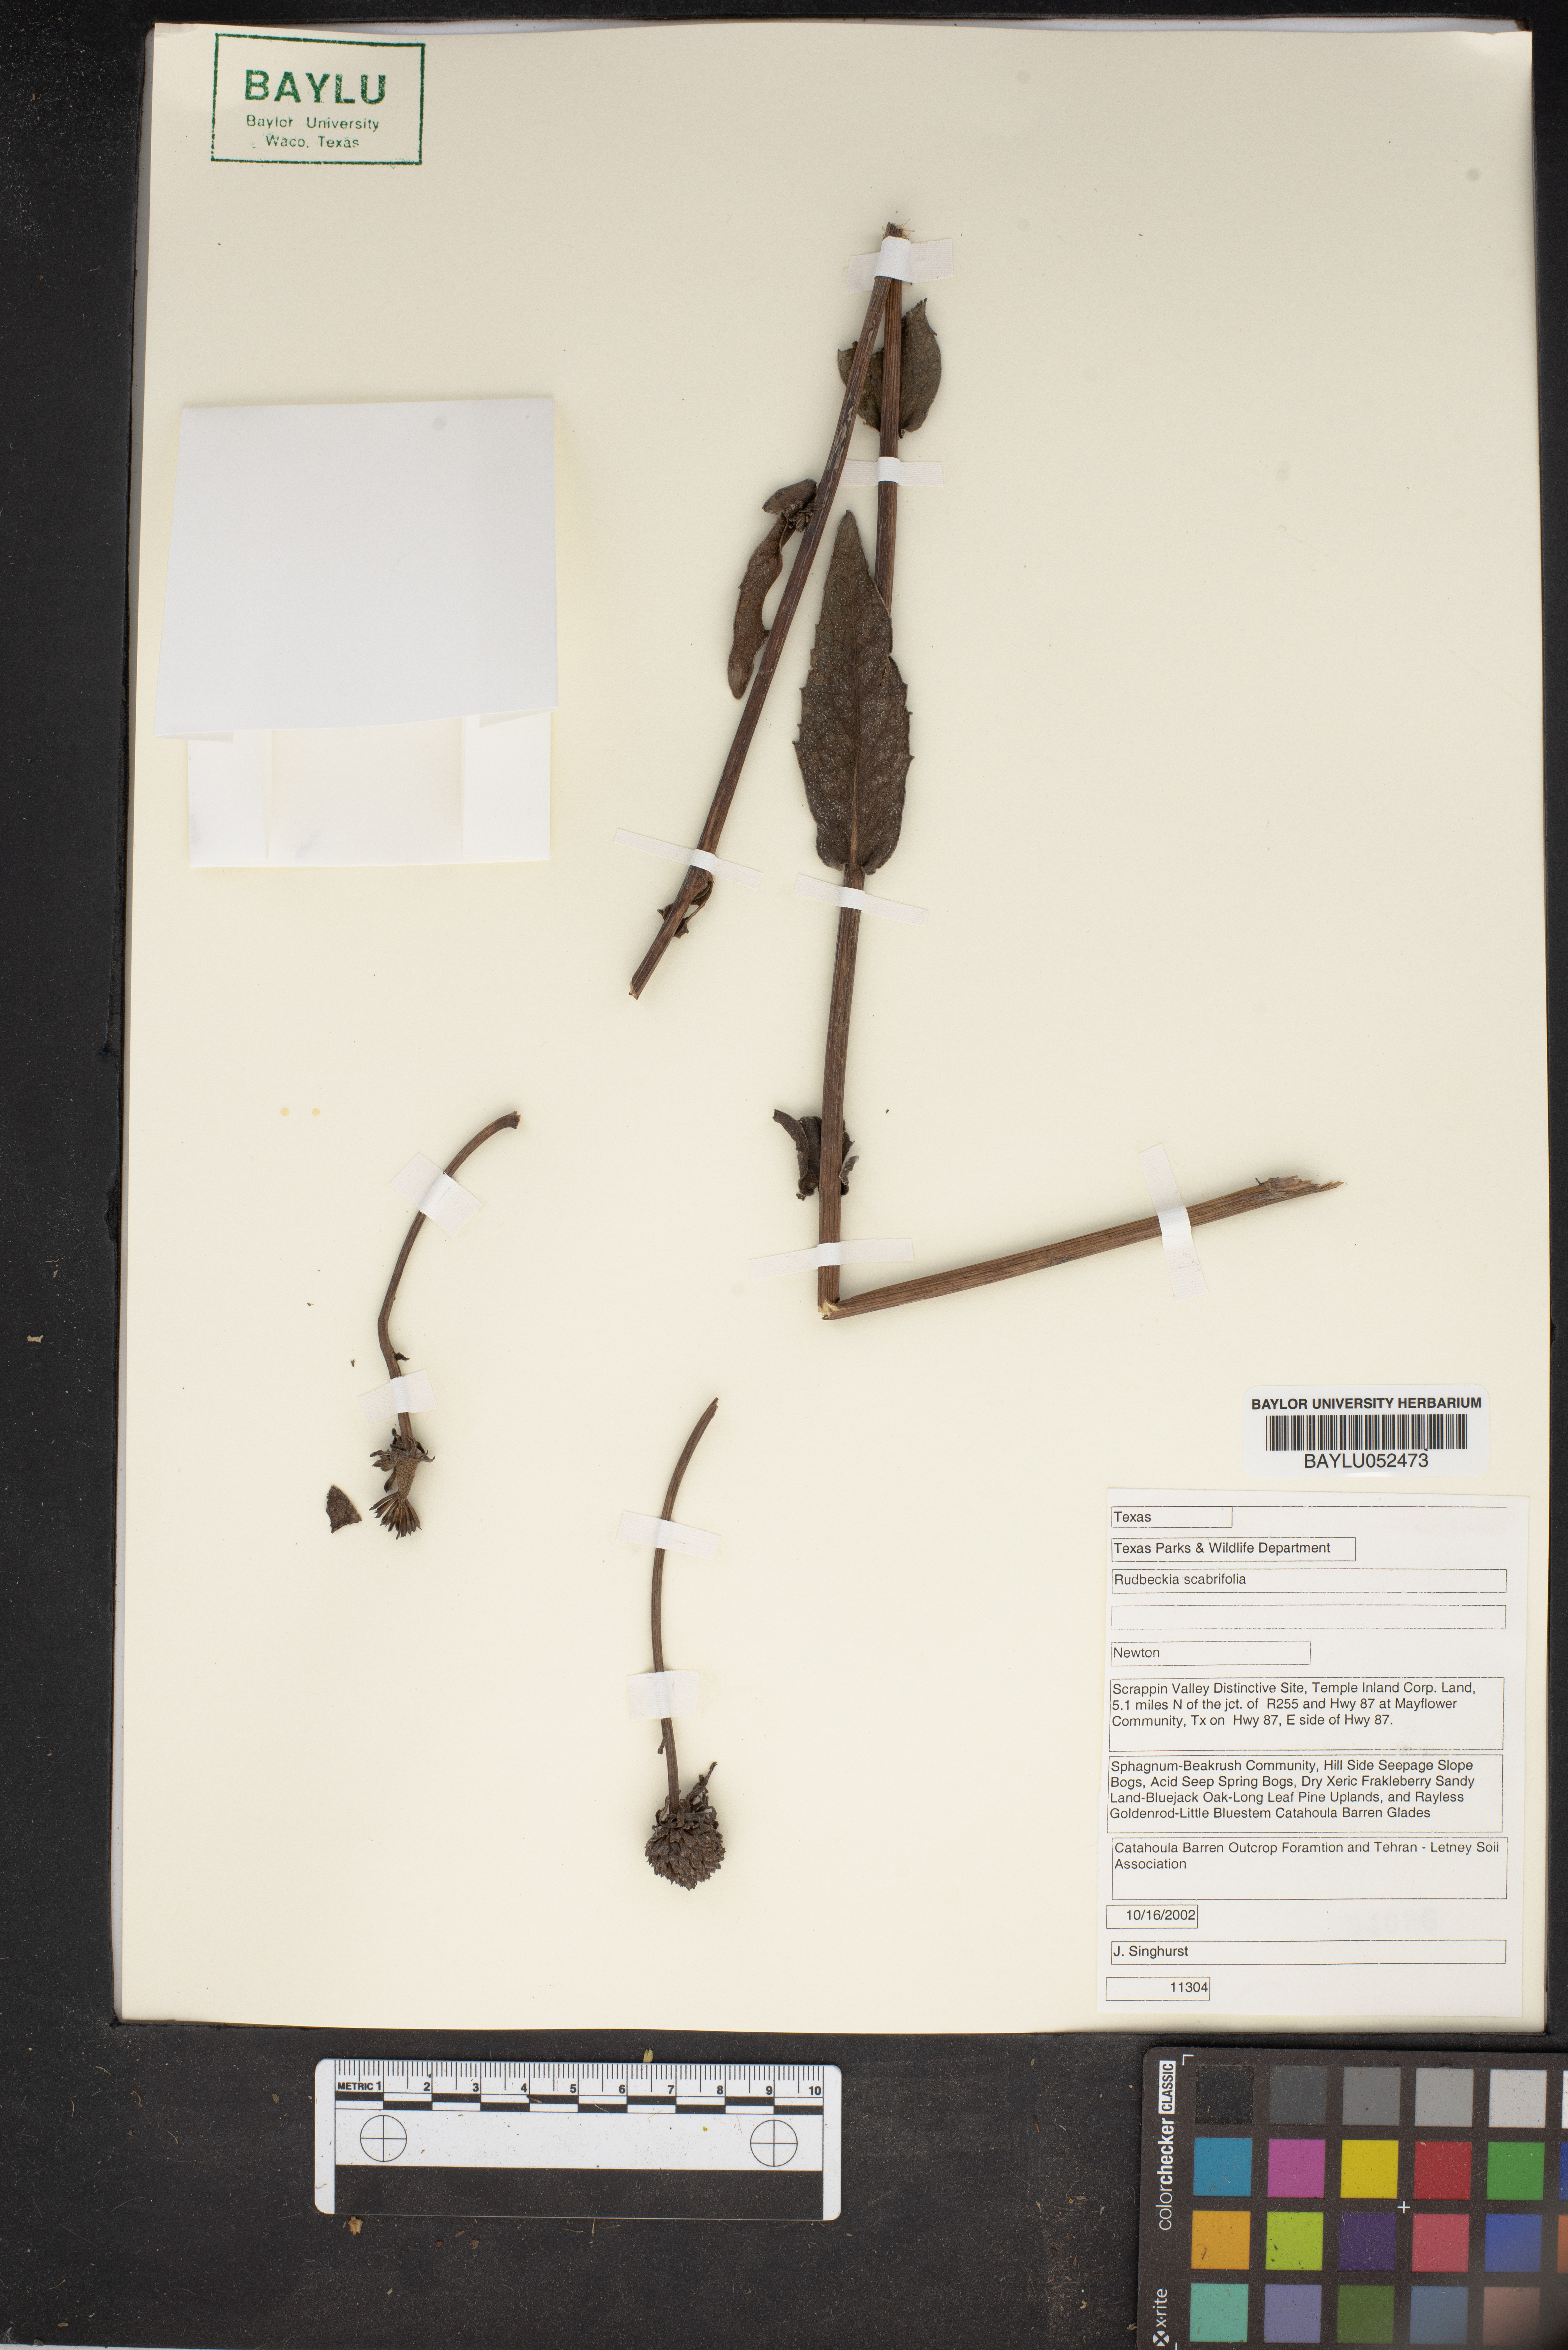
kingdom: Plantae
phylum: Tracheophyta
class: Magnoliopsida
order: Asterales
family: Asteraceae
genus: Rudbeckia
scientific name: Rudbeckia scabrifolia
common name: Rough-leaf coneflower
